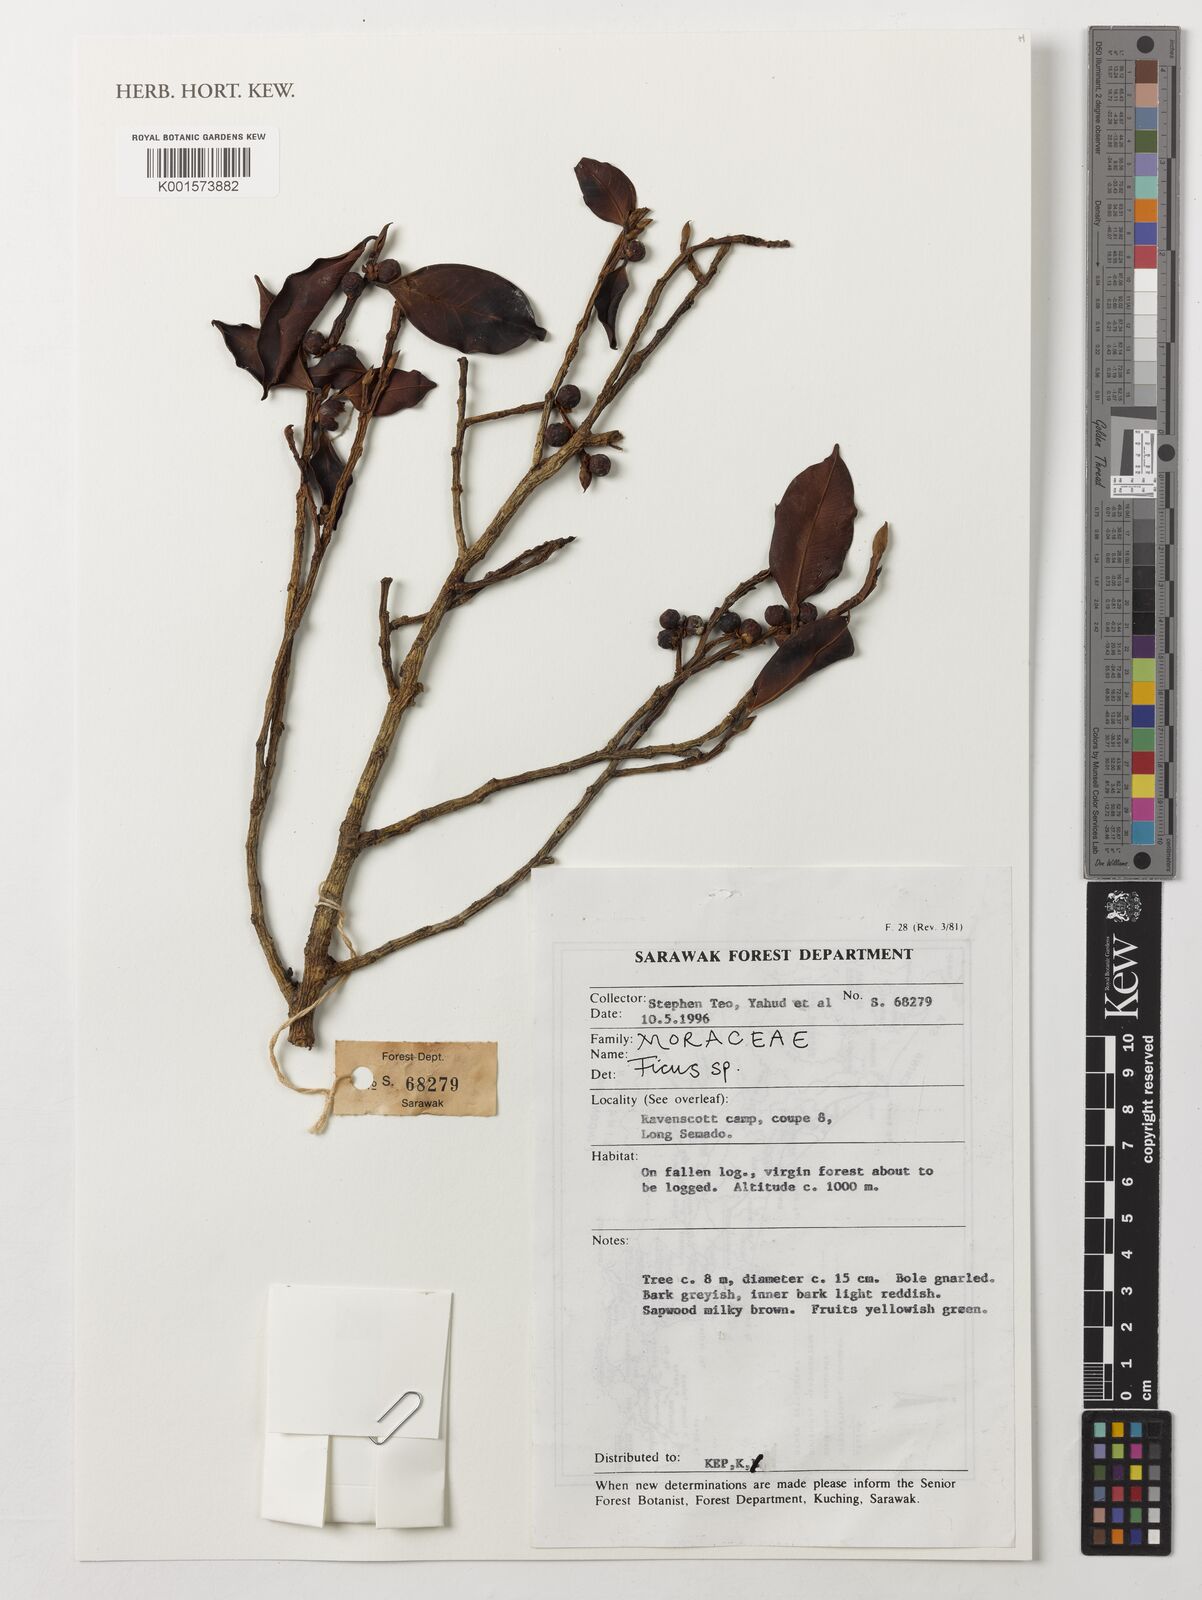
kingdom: Plantae
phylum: Tracheophyta
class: Magnoliopsida
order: Rosales
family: Moraceae
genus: Ficus
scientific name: Ficus
